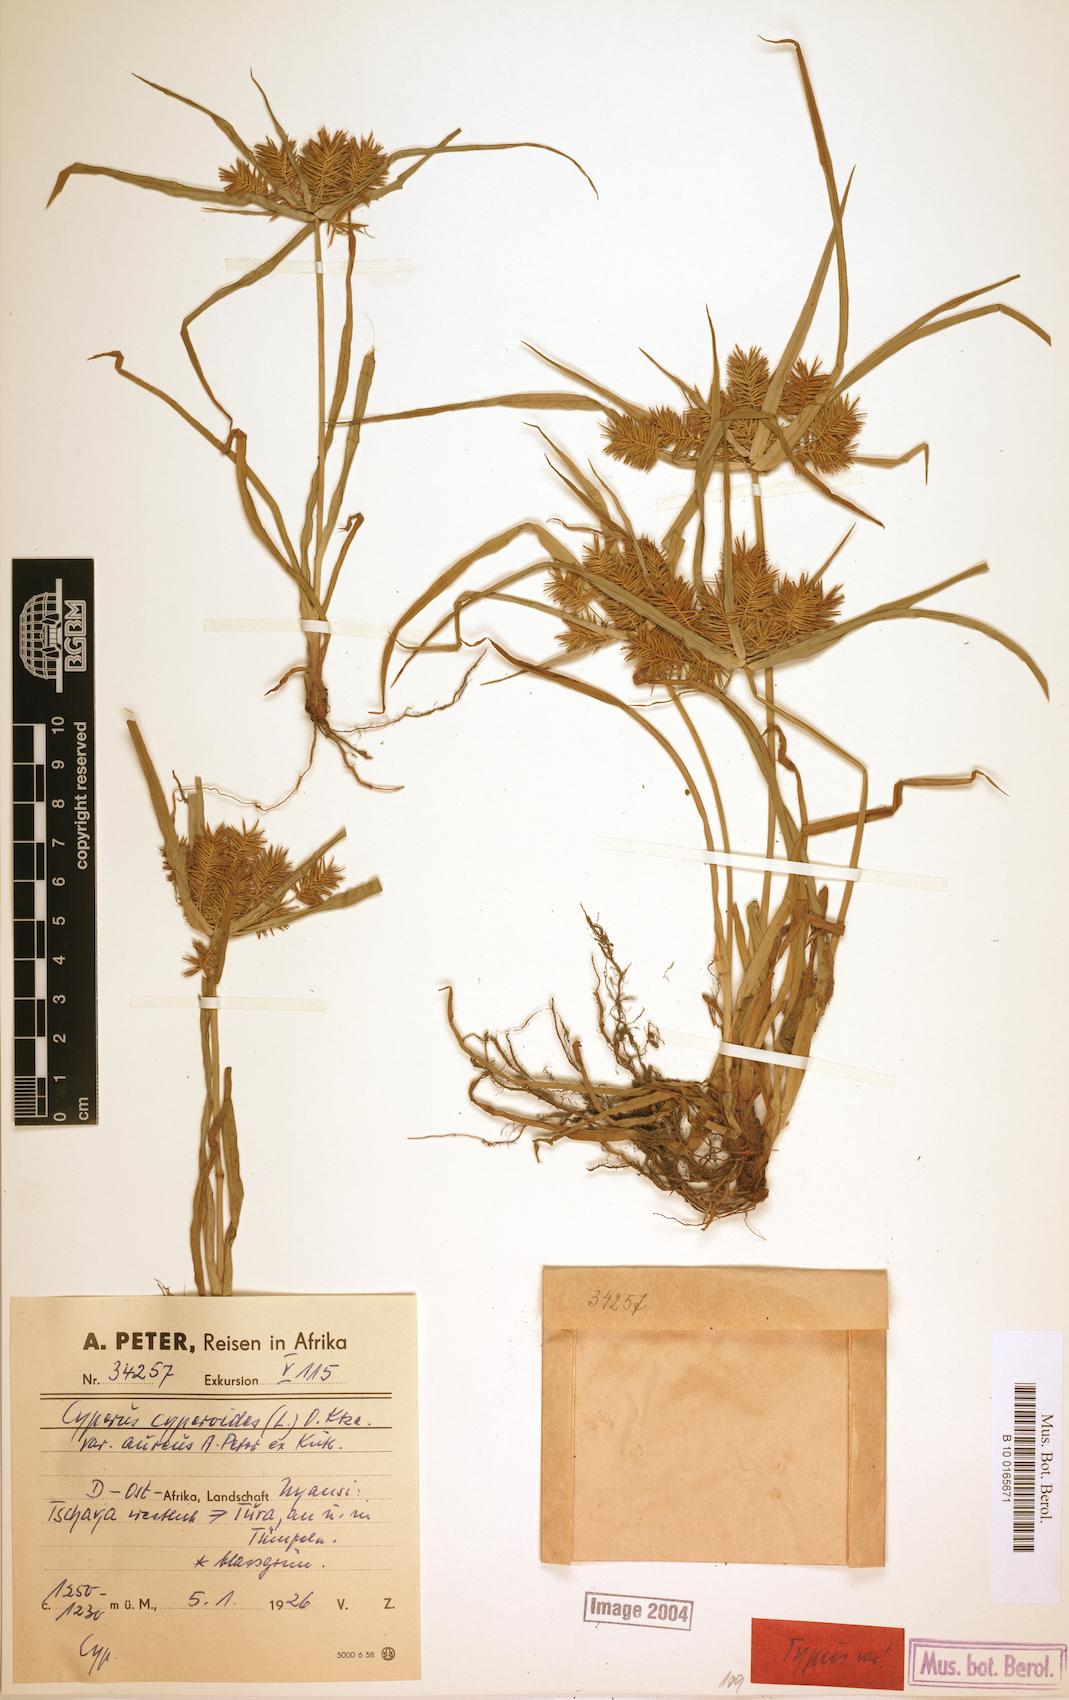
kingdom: Plantae
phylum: Tracheophyta
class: Liliopsida
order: Poales
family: Cyperaceae
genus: Cyperus
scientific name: Cyperus cyperoides
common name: Pacific island flat sedge
